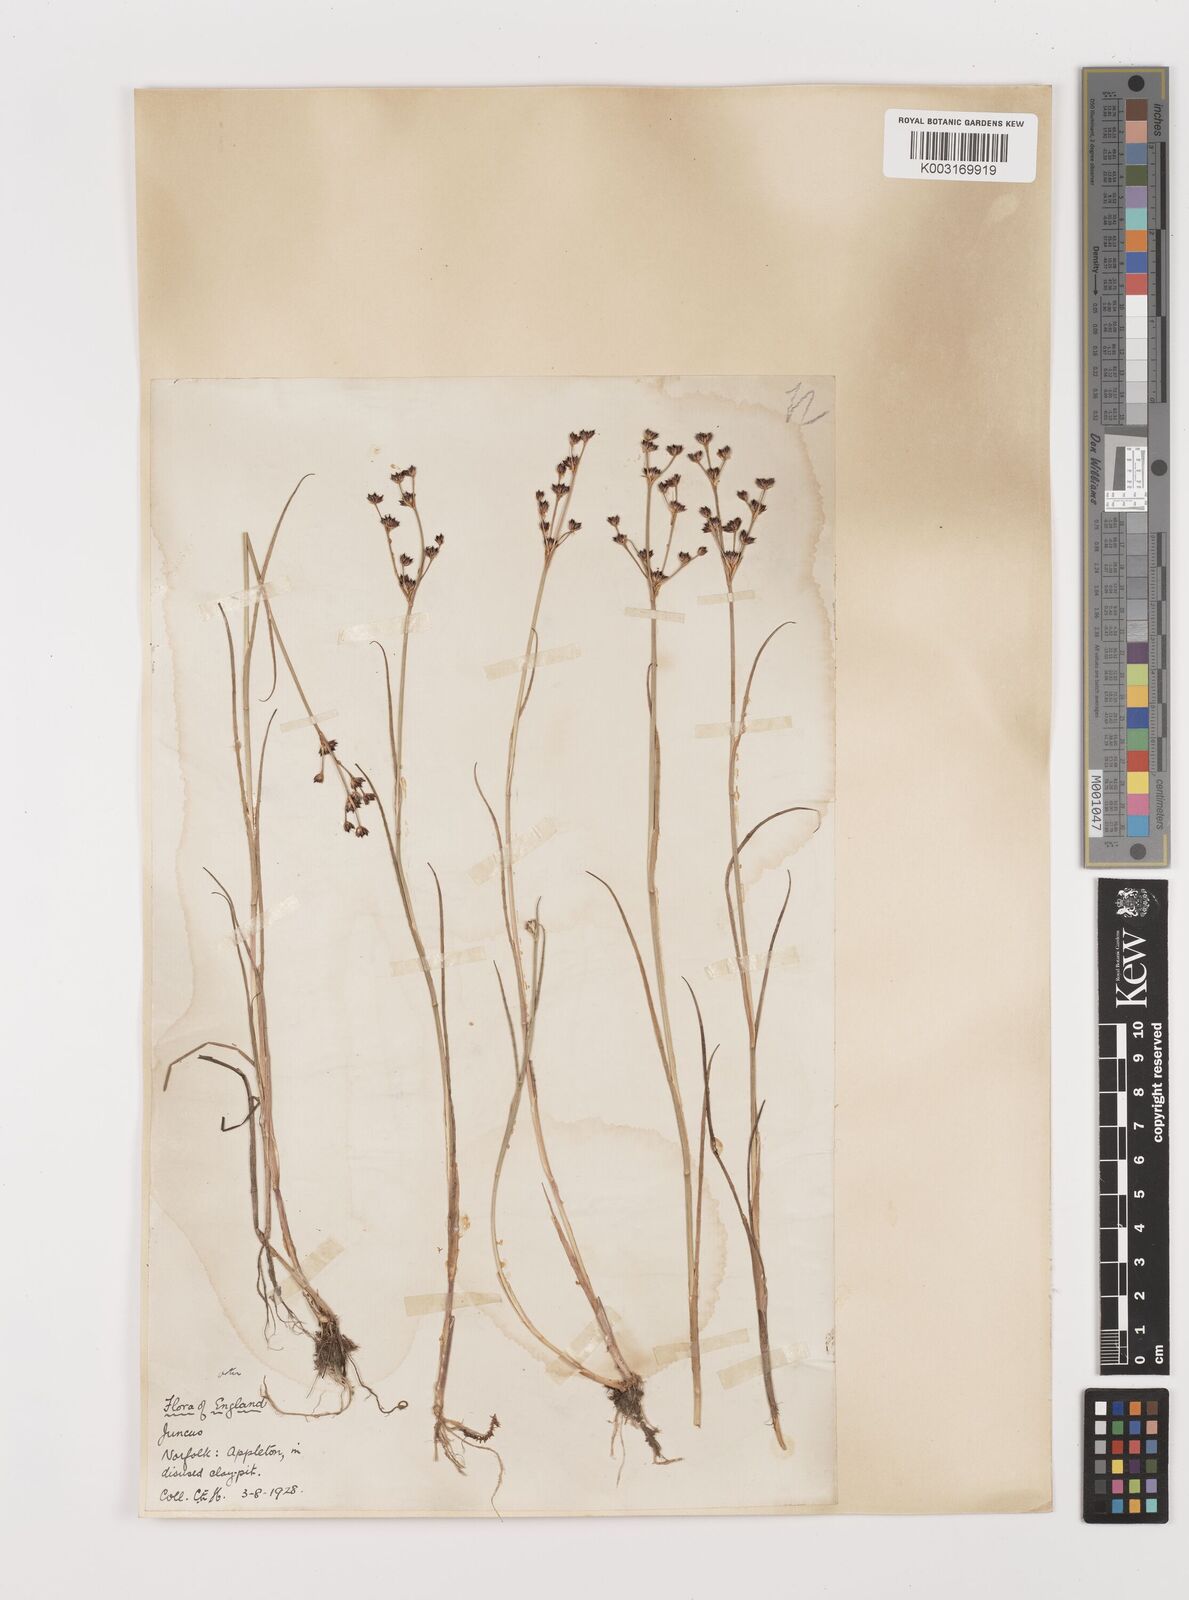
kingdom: Plantae
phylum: Tracheophyta
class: Liliopsida
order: Poales
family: Juncaceae
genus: Juncus
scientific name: Juncus articulatus
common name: Jointed rush
